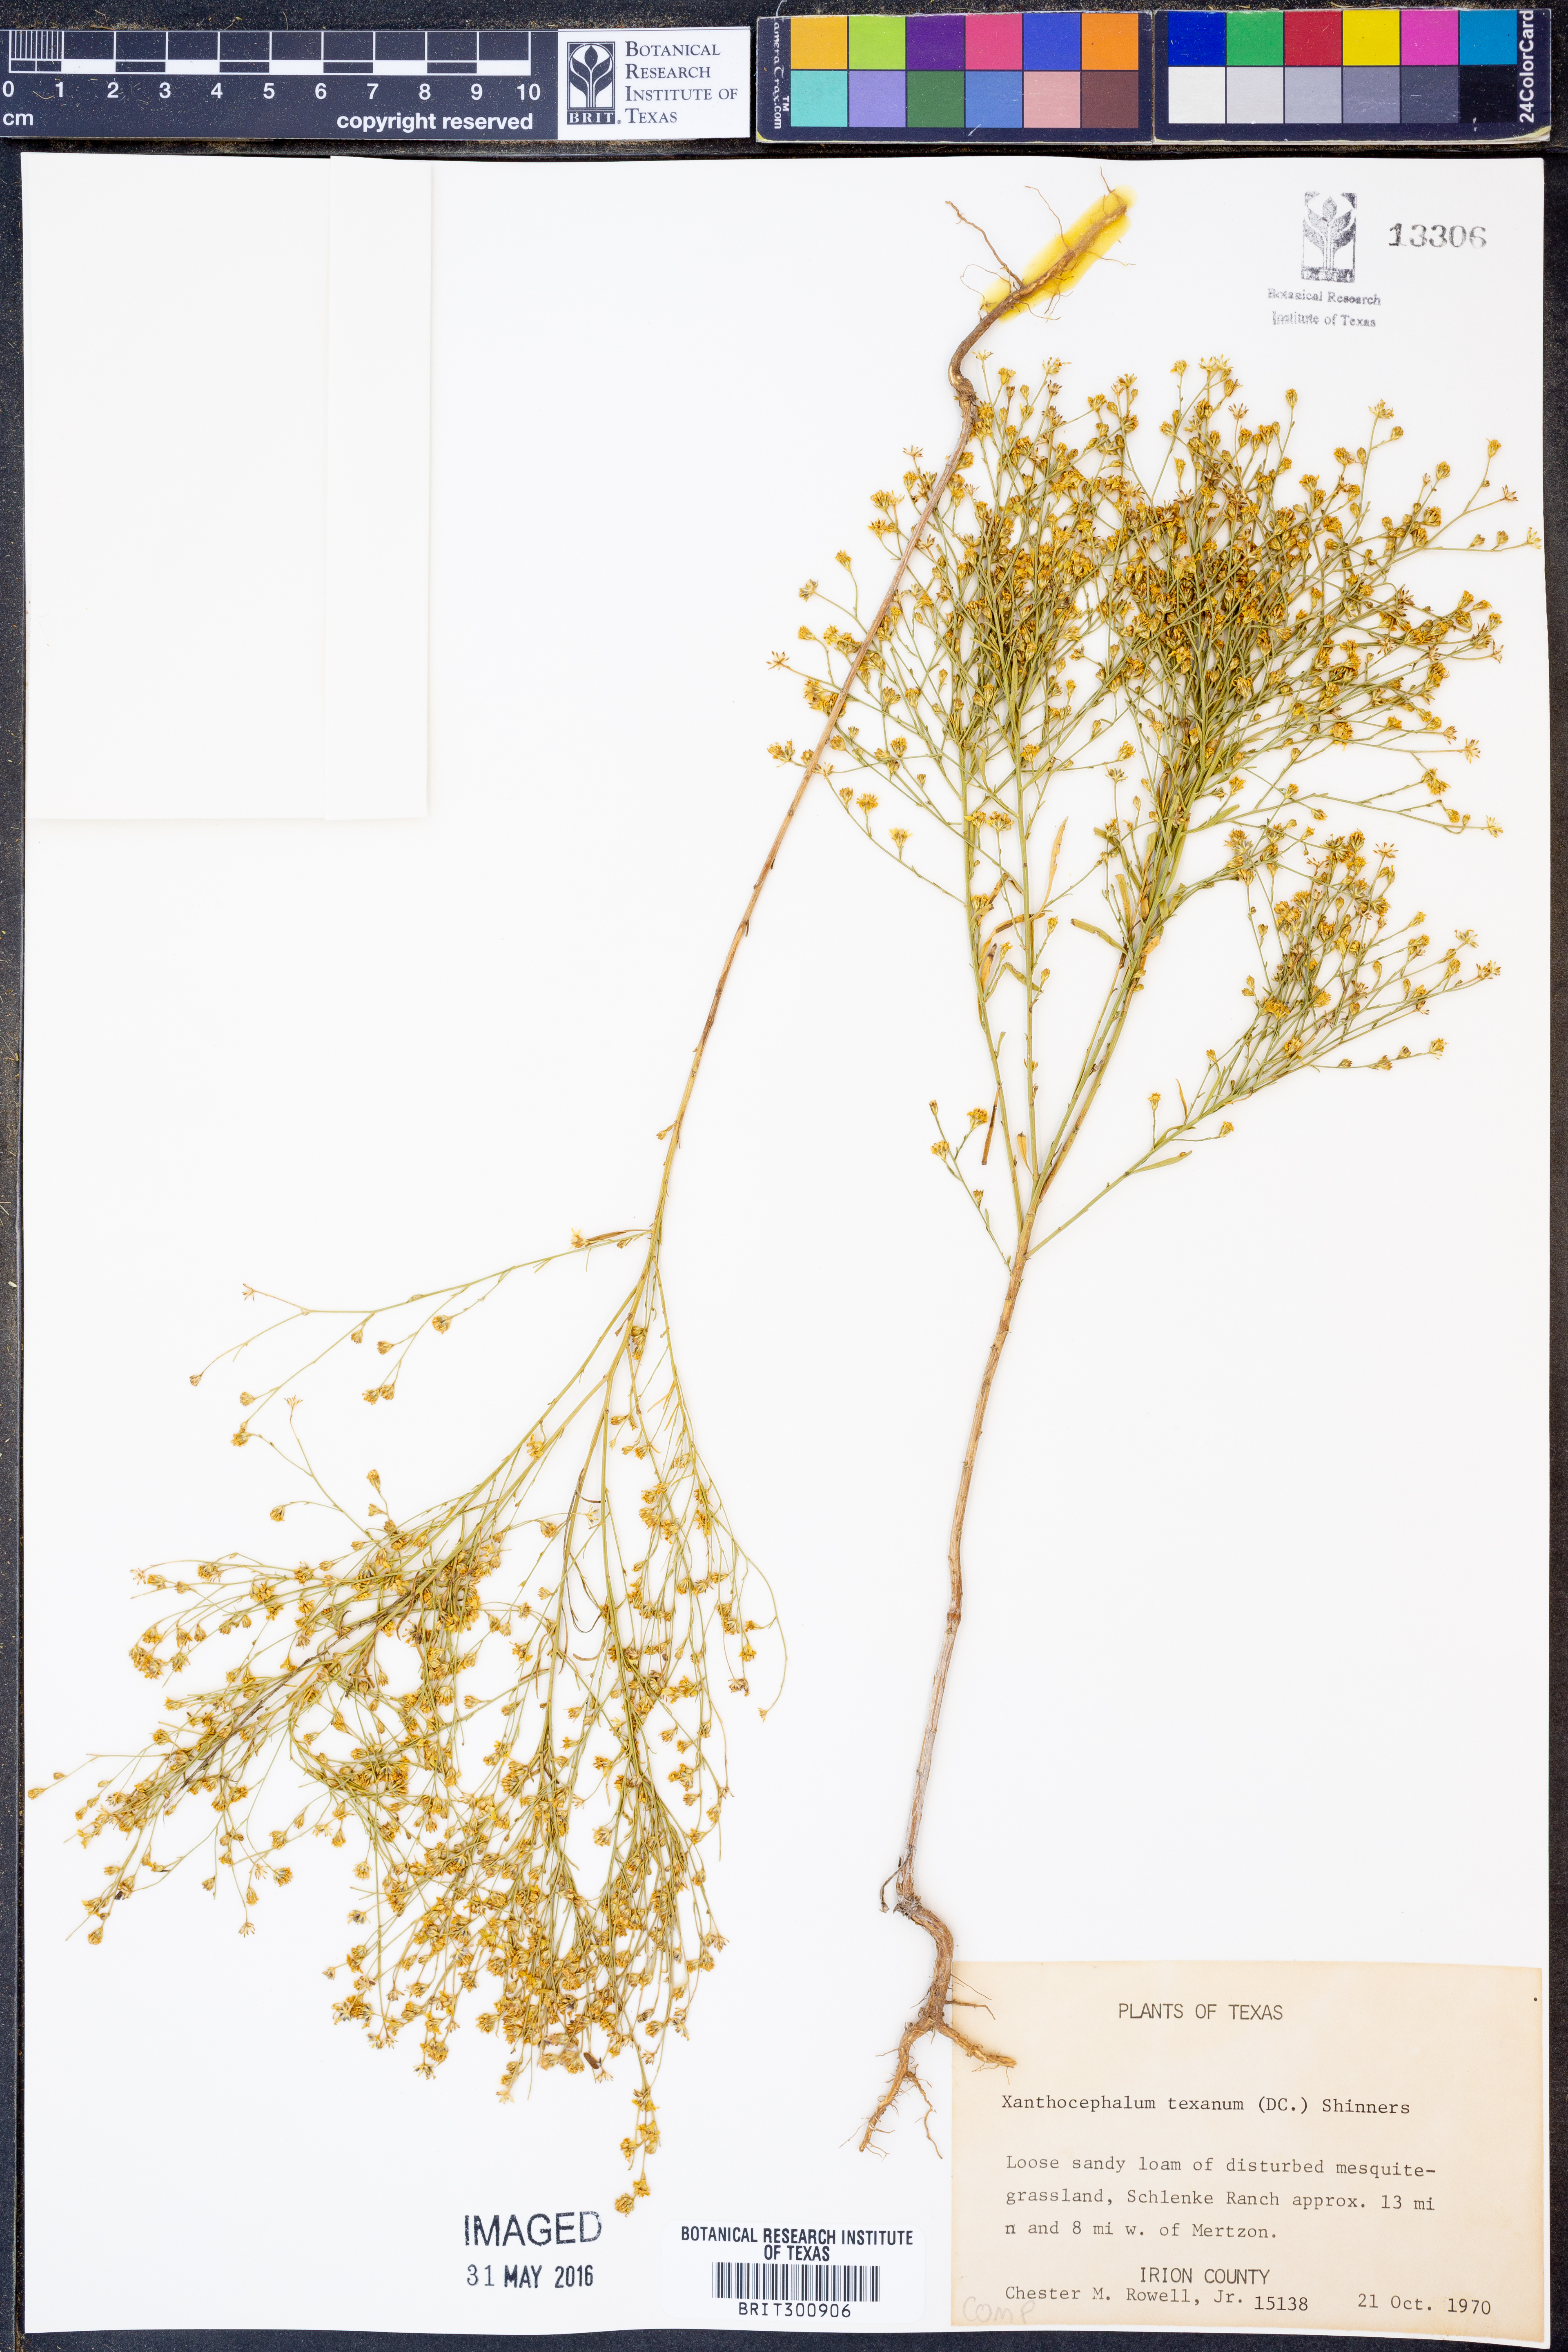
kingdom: Plantae
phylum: Tracheophyta
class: Magnoliopsida
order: Asterales
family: Asteraceae
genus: Gutierrezia
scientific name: Gutierrezia texana
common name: Texas snakeweed
